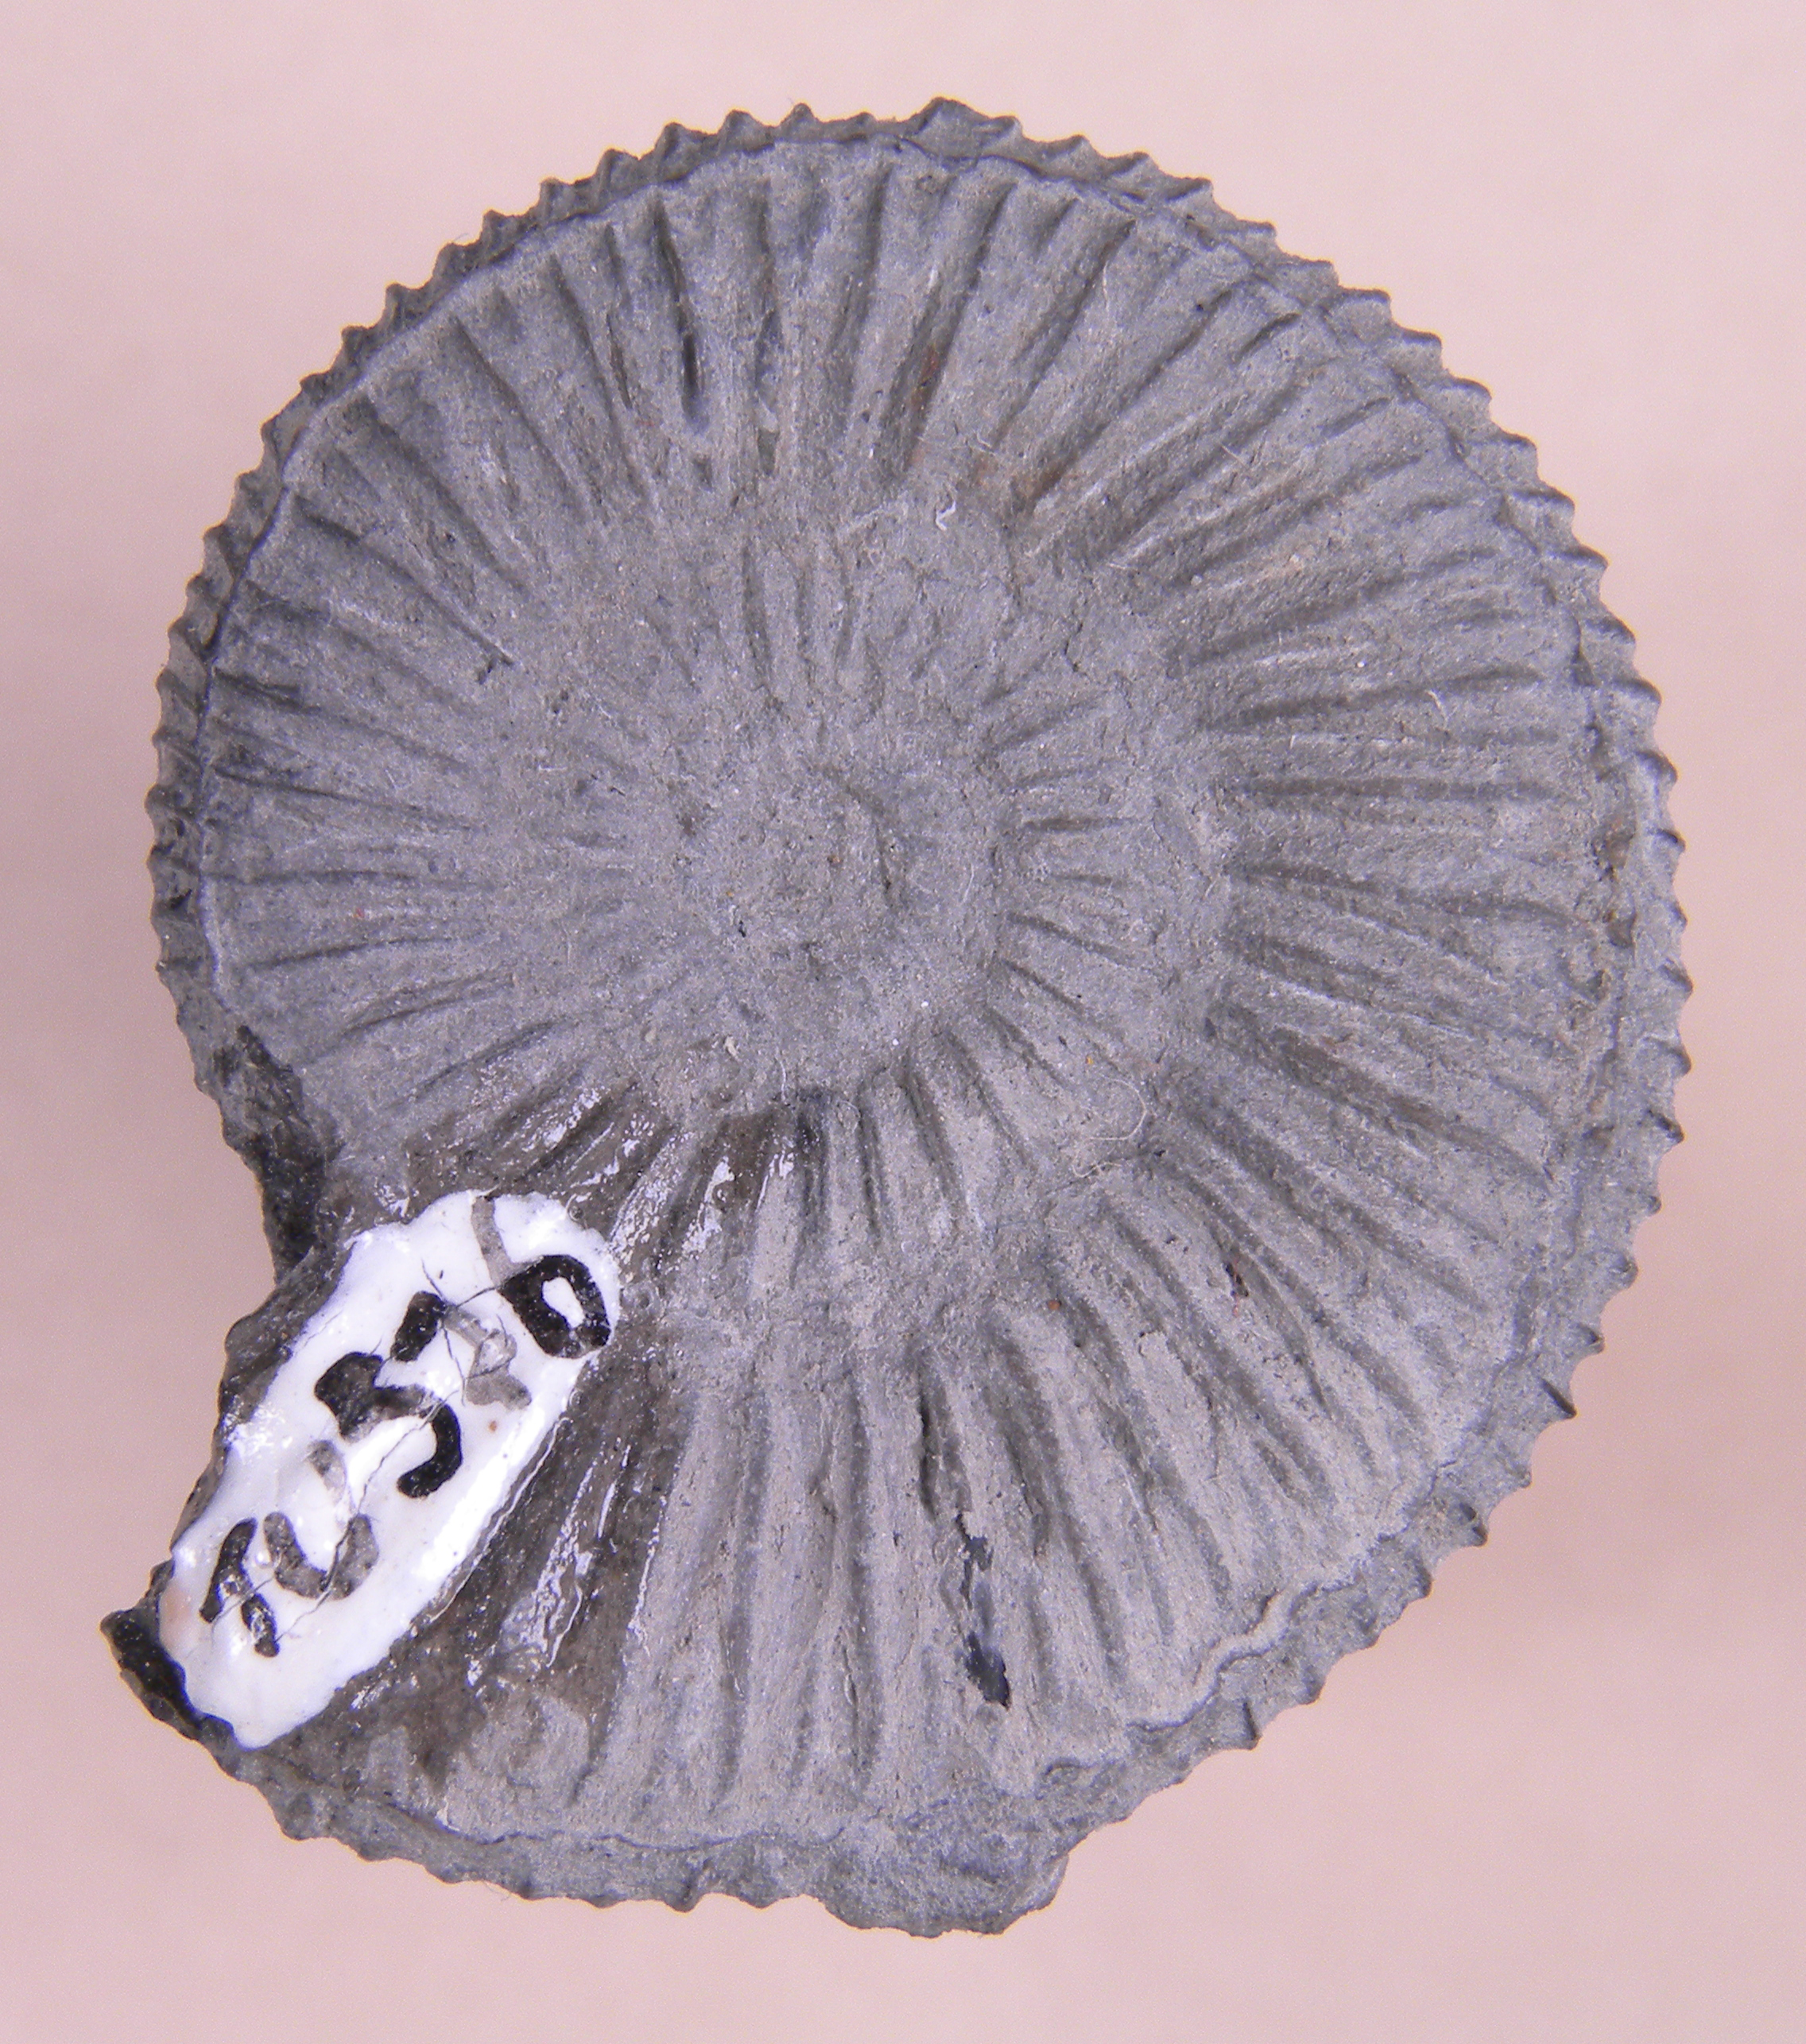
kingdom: Animalia
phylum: Mollusca
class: Cephalopoda
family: Dactylioceratidae
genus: Dactylioceras
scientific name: Dactylioceras
